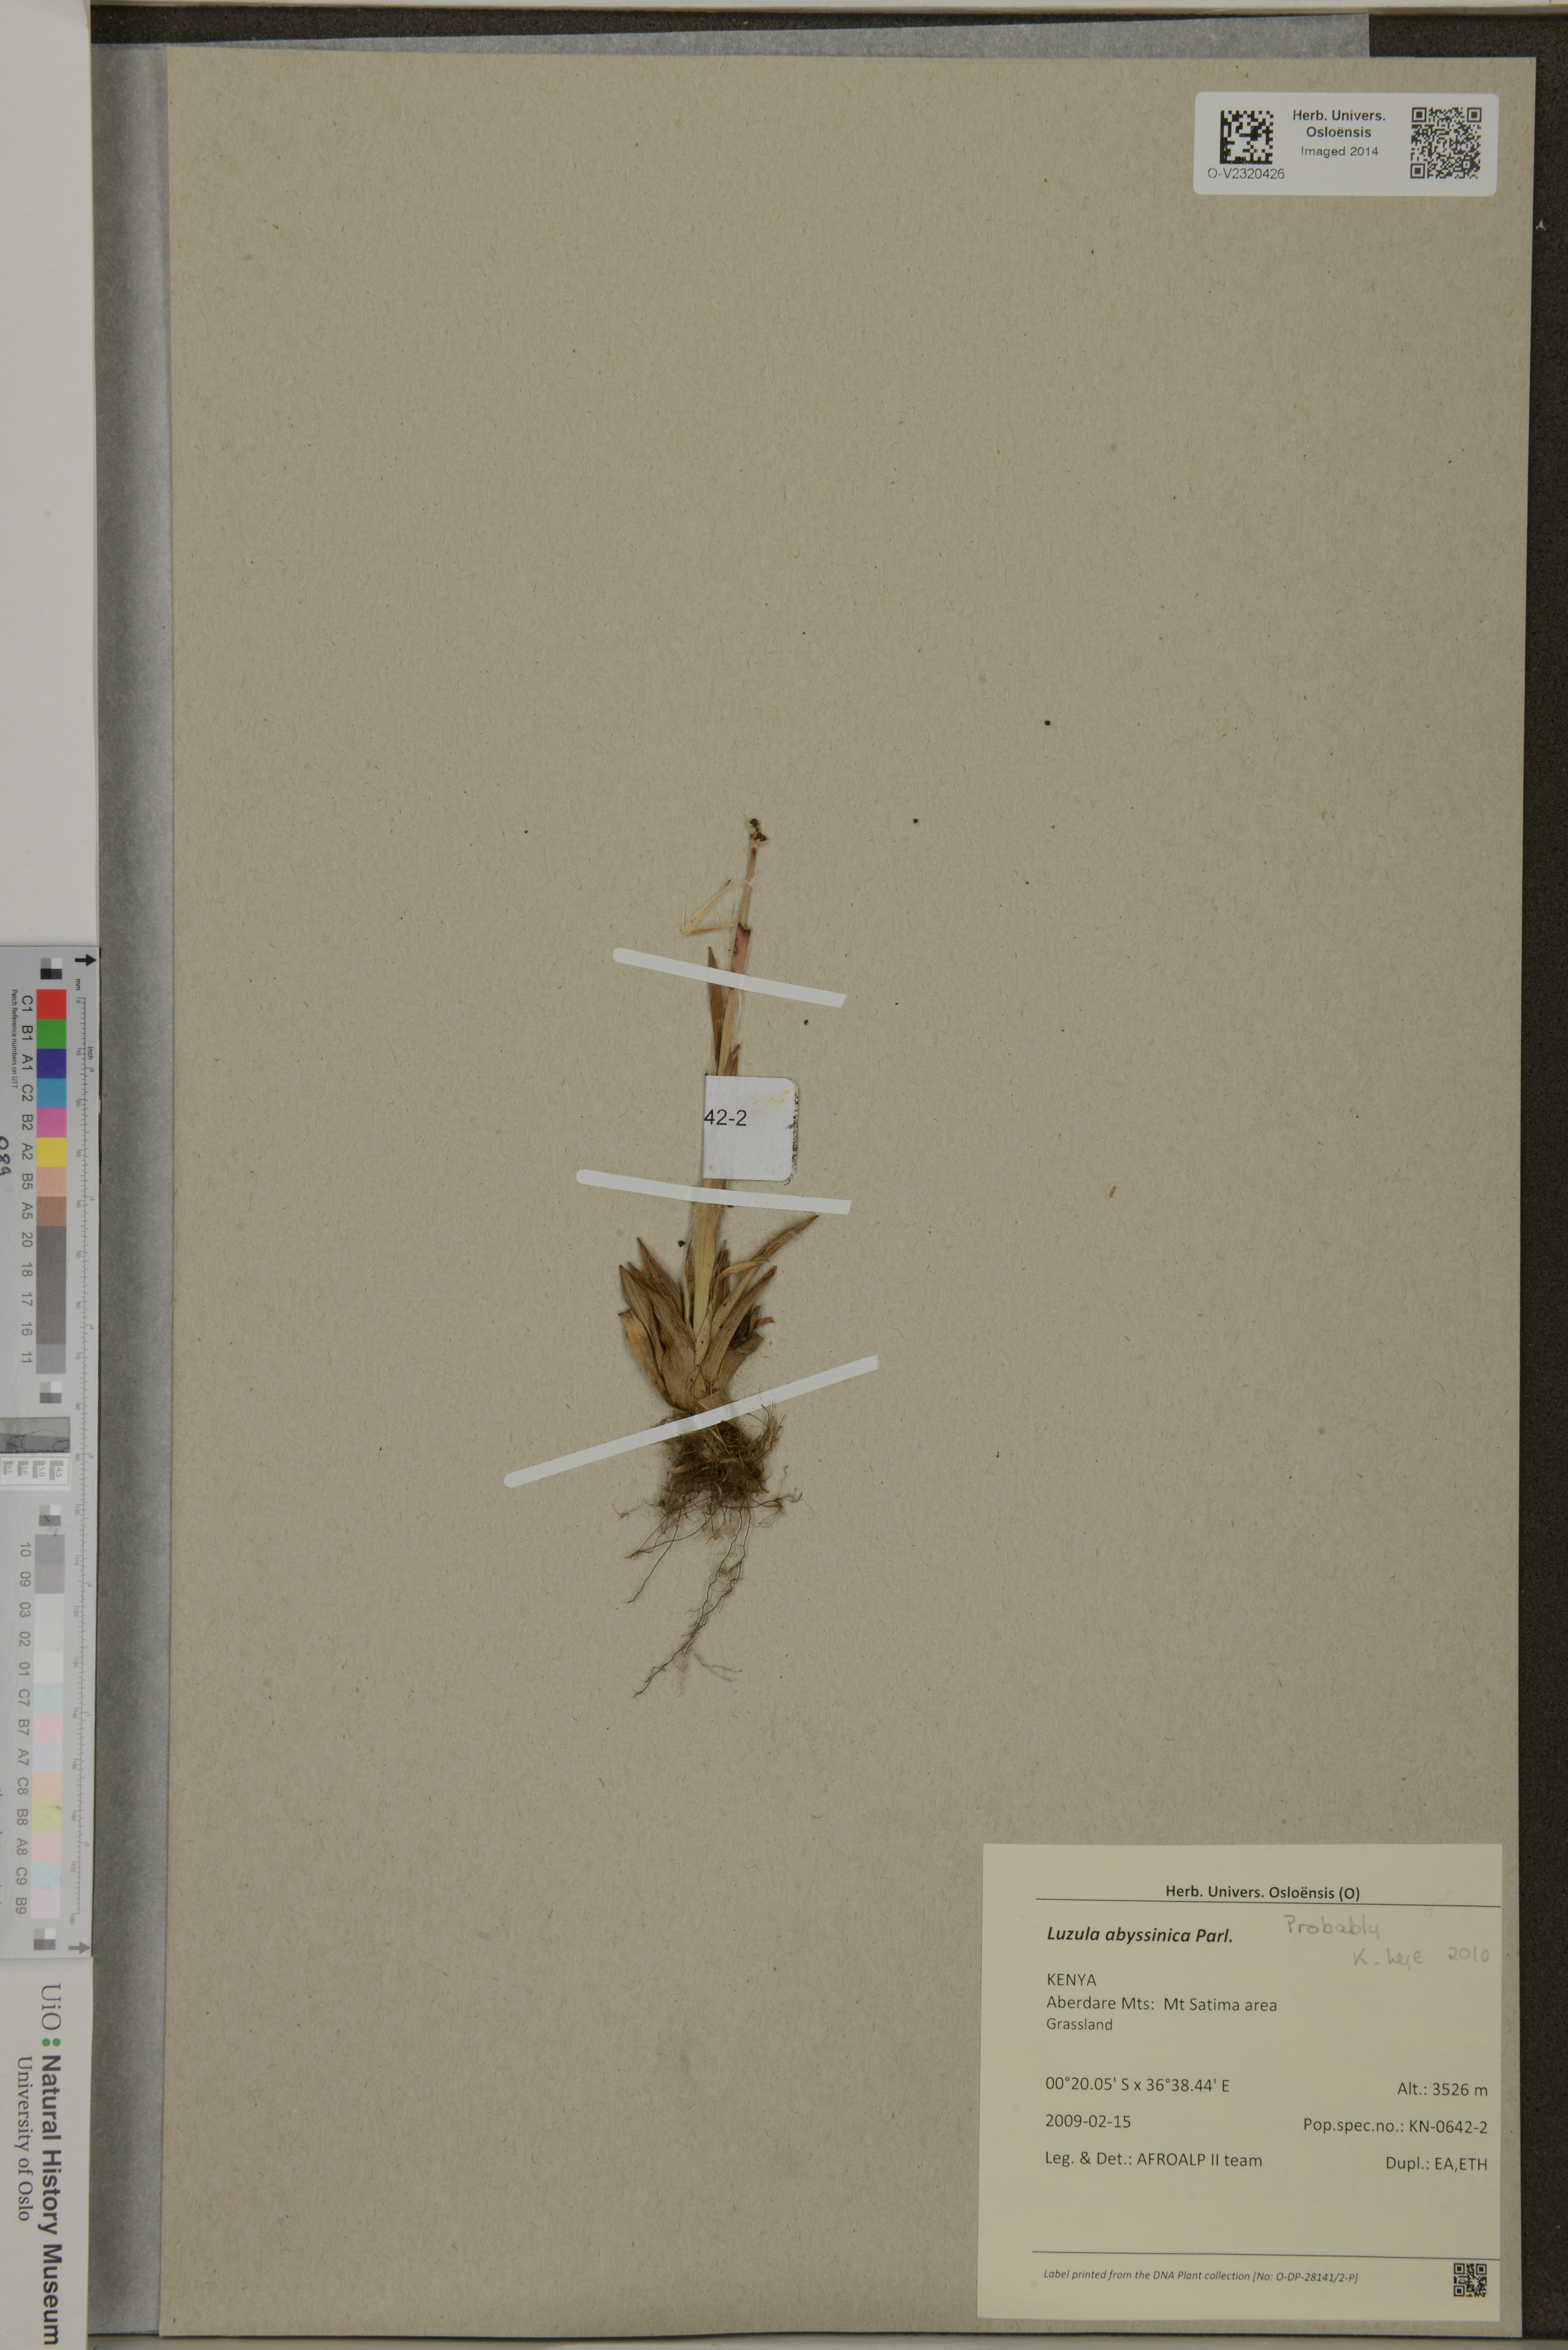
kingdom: Plantae
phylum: Tracheophyta
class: Liliopsida
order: Poales
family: Juncaceae
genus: Luzula
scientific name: Luzula abyssinica
